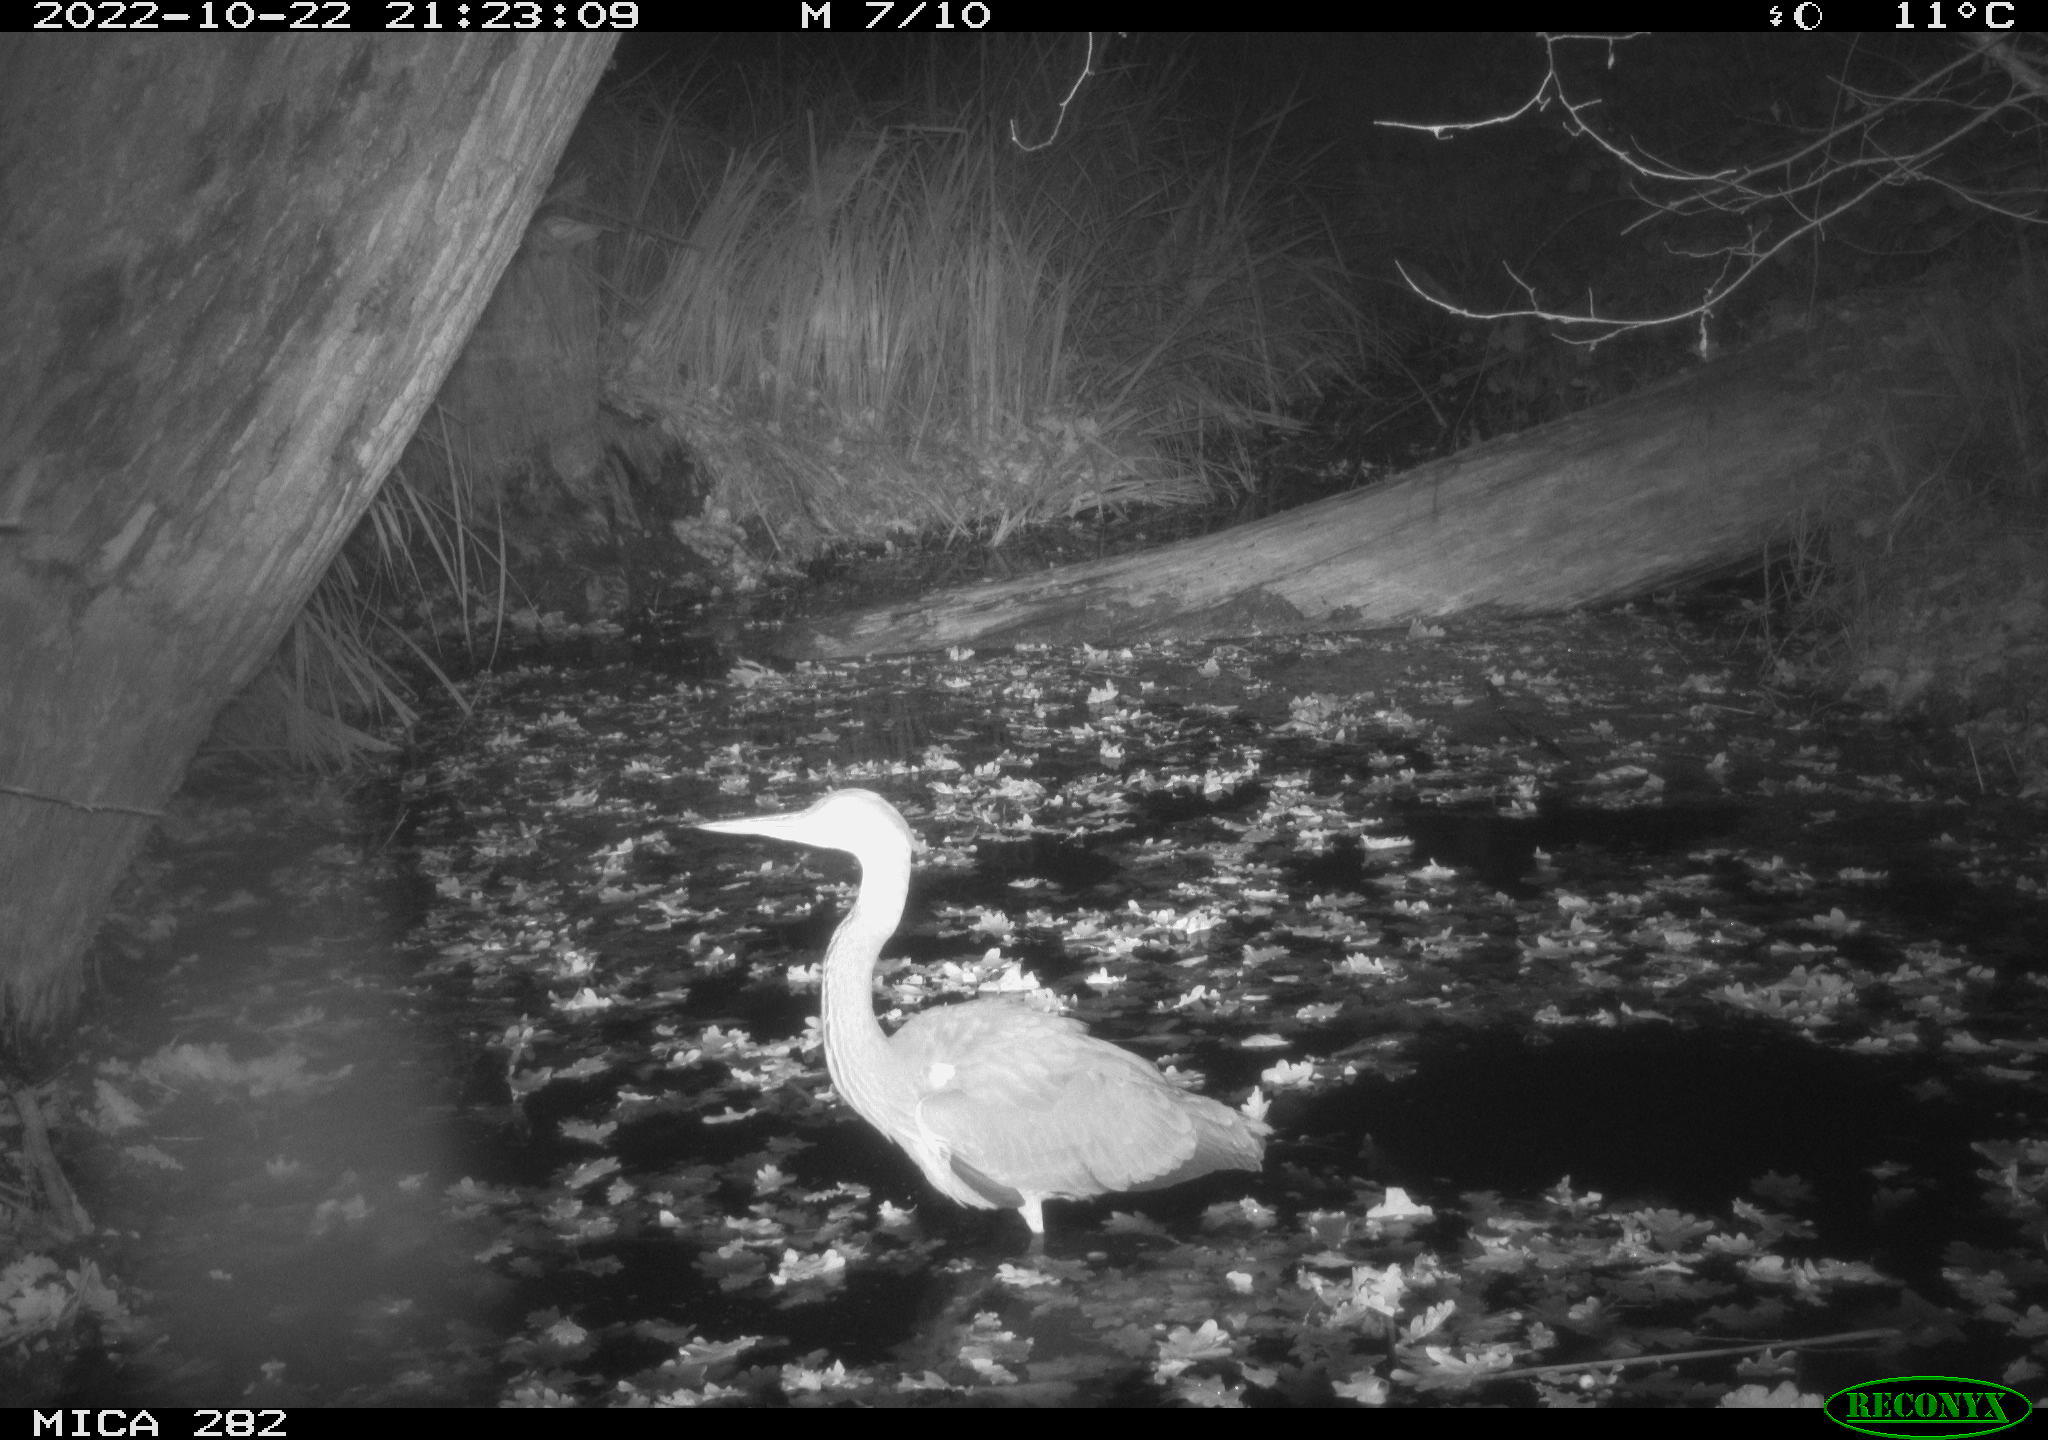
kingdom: Animalia
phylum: Chordata
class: Aves
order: Pelecaniformes
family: Ardeidae
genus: Ardea
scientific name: Ardea cinerea
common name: Grey heron
